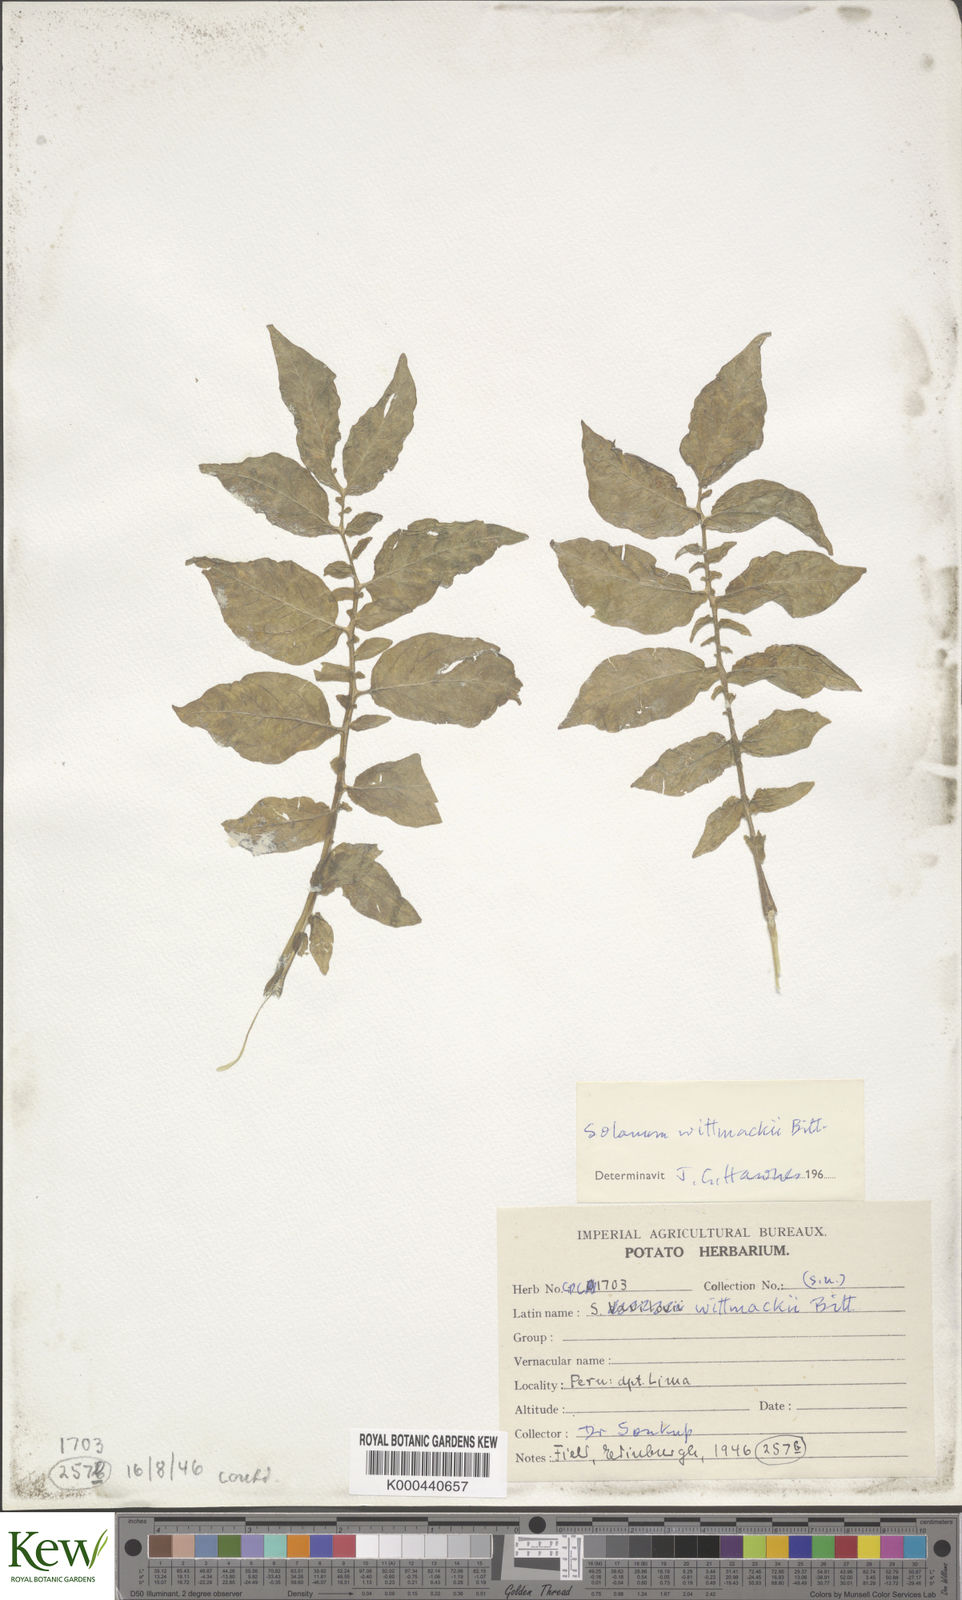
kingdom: Plantae
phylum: Tracheophyta
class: Magnoliopsida
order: Solanales
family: Solanaceae
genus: Solanum
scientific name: Solanum wittmackii
